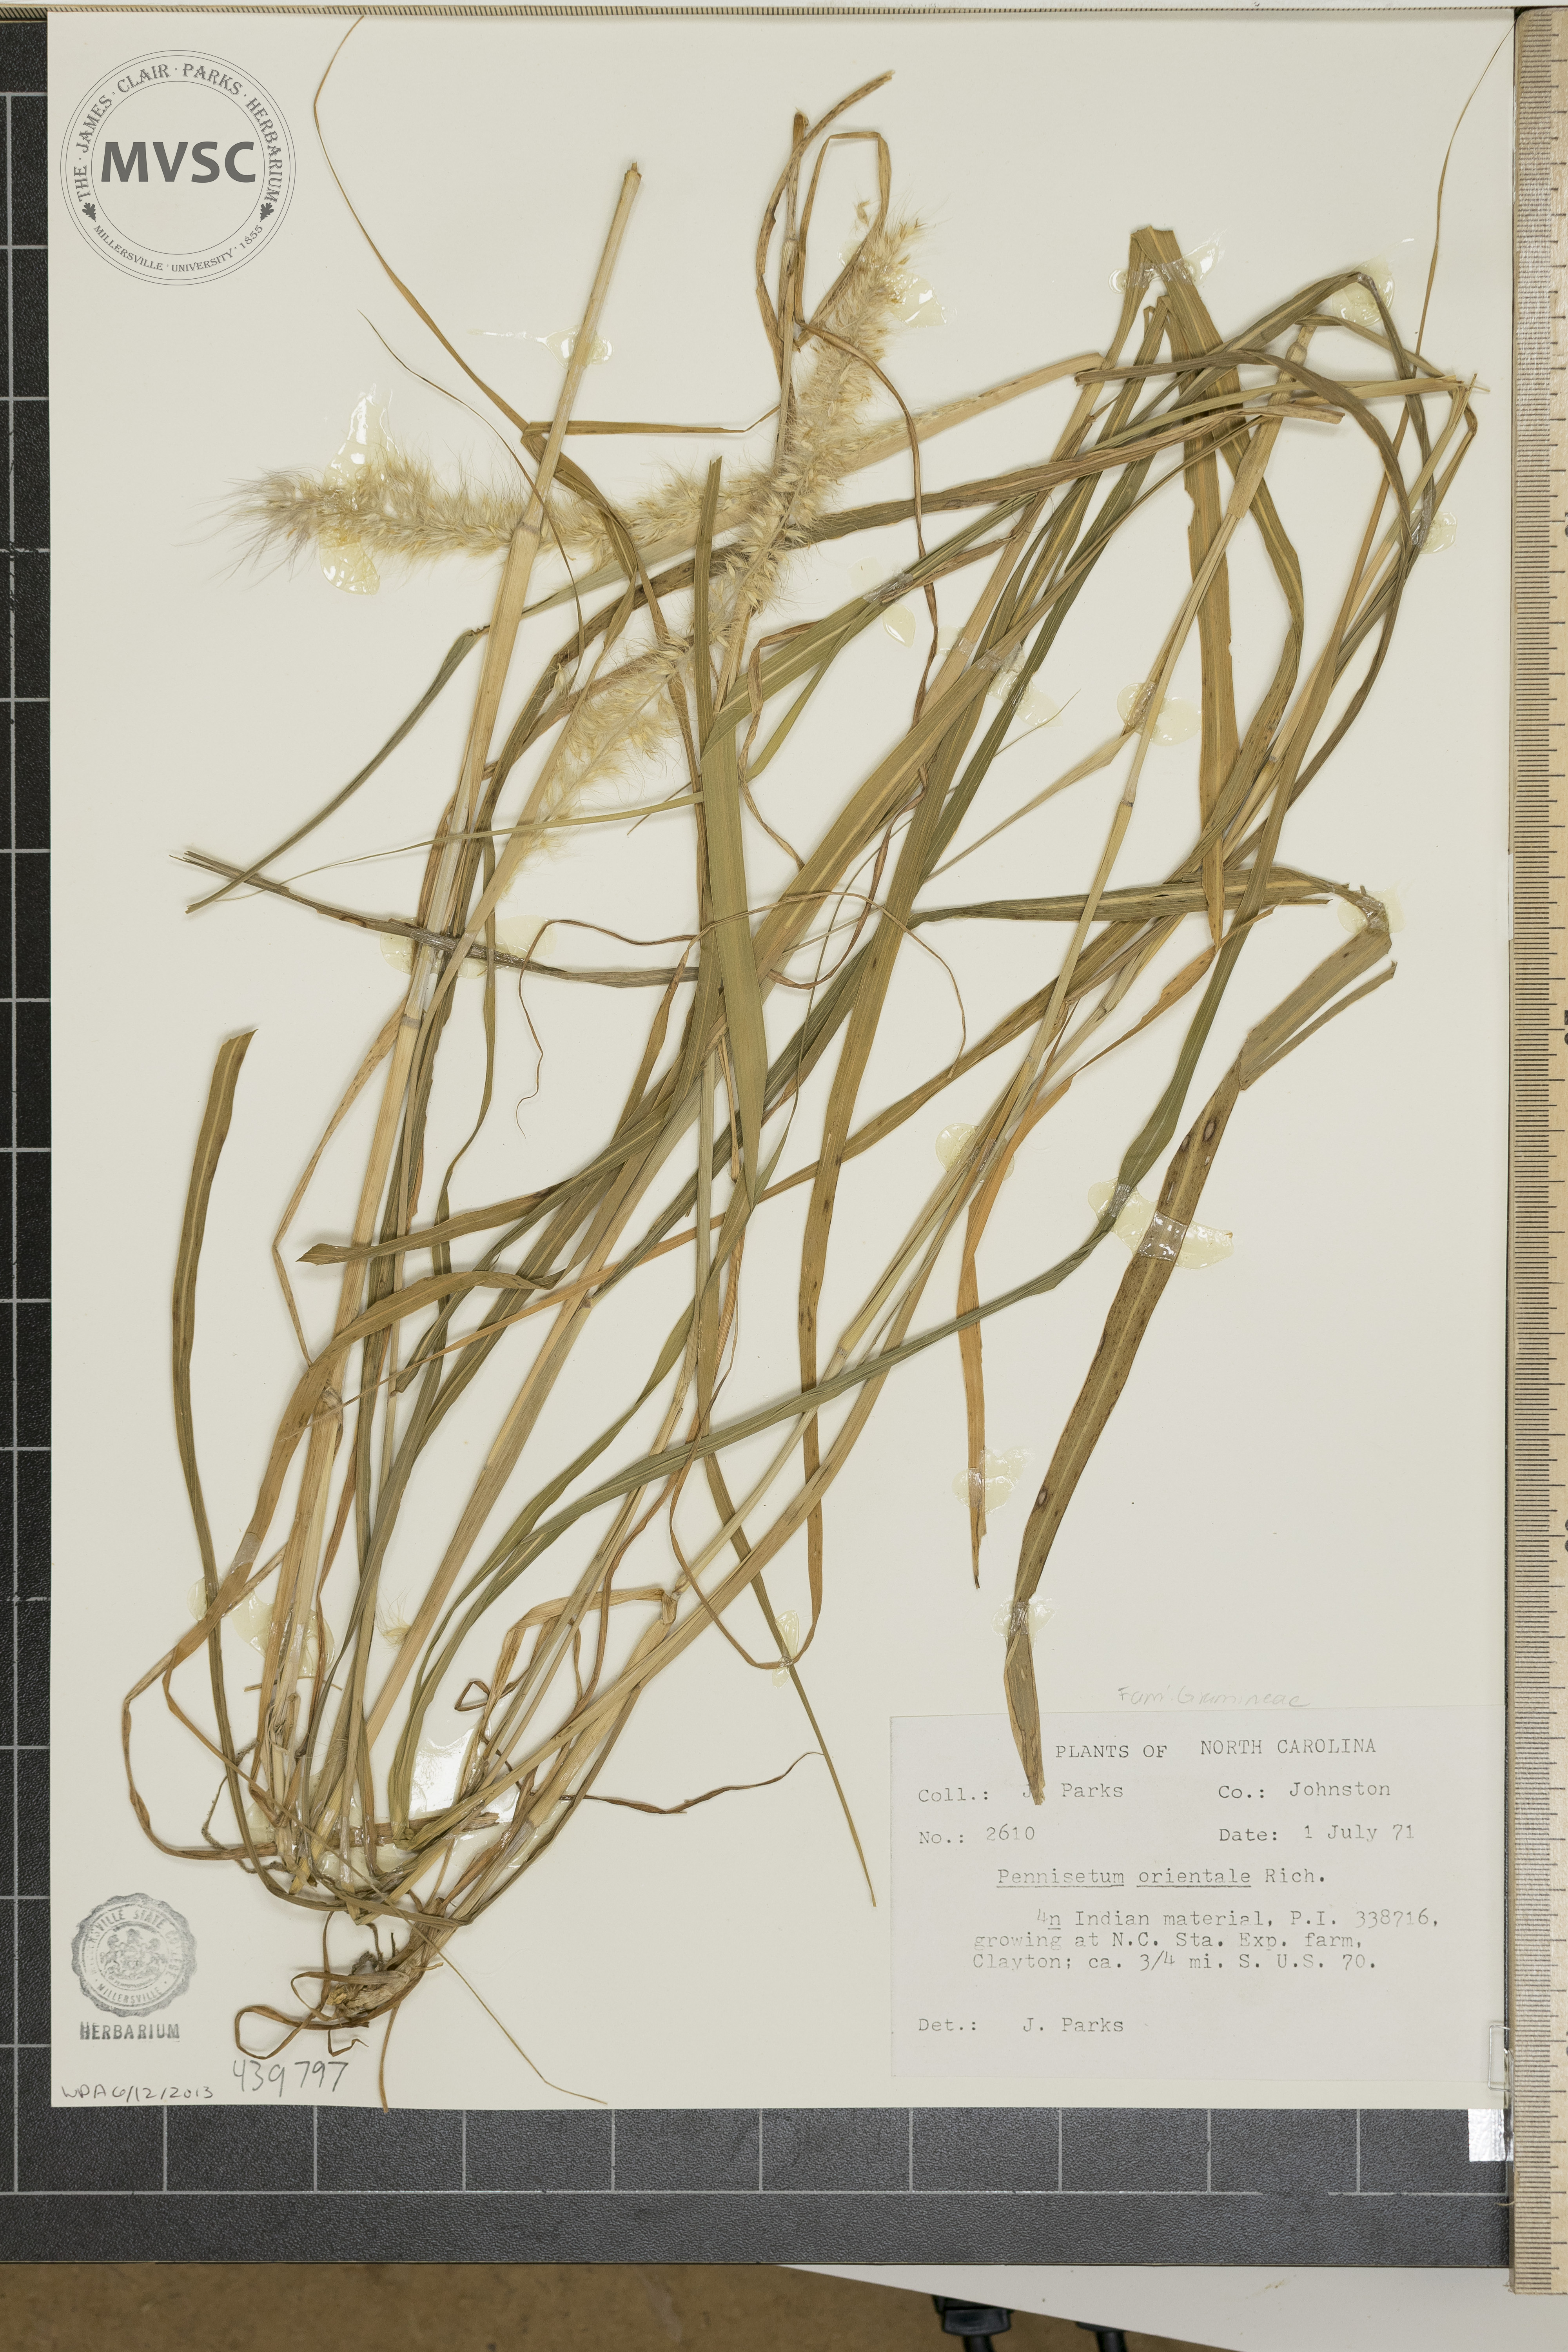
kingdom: Plantae
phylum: Tracheophyta
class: Liliopsida
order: Poales
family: Poaceae
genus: Cenchrus
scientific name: Cenchrus orientalis
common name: Oriental fountain grass
